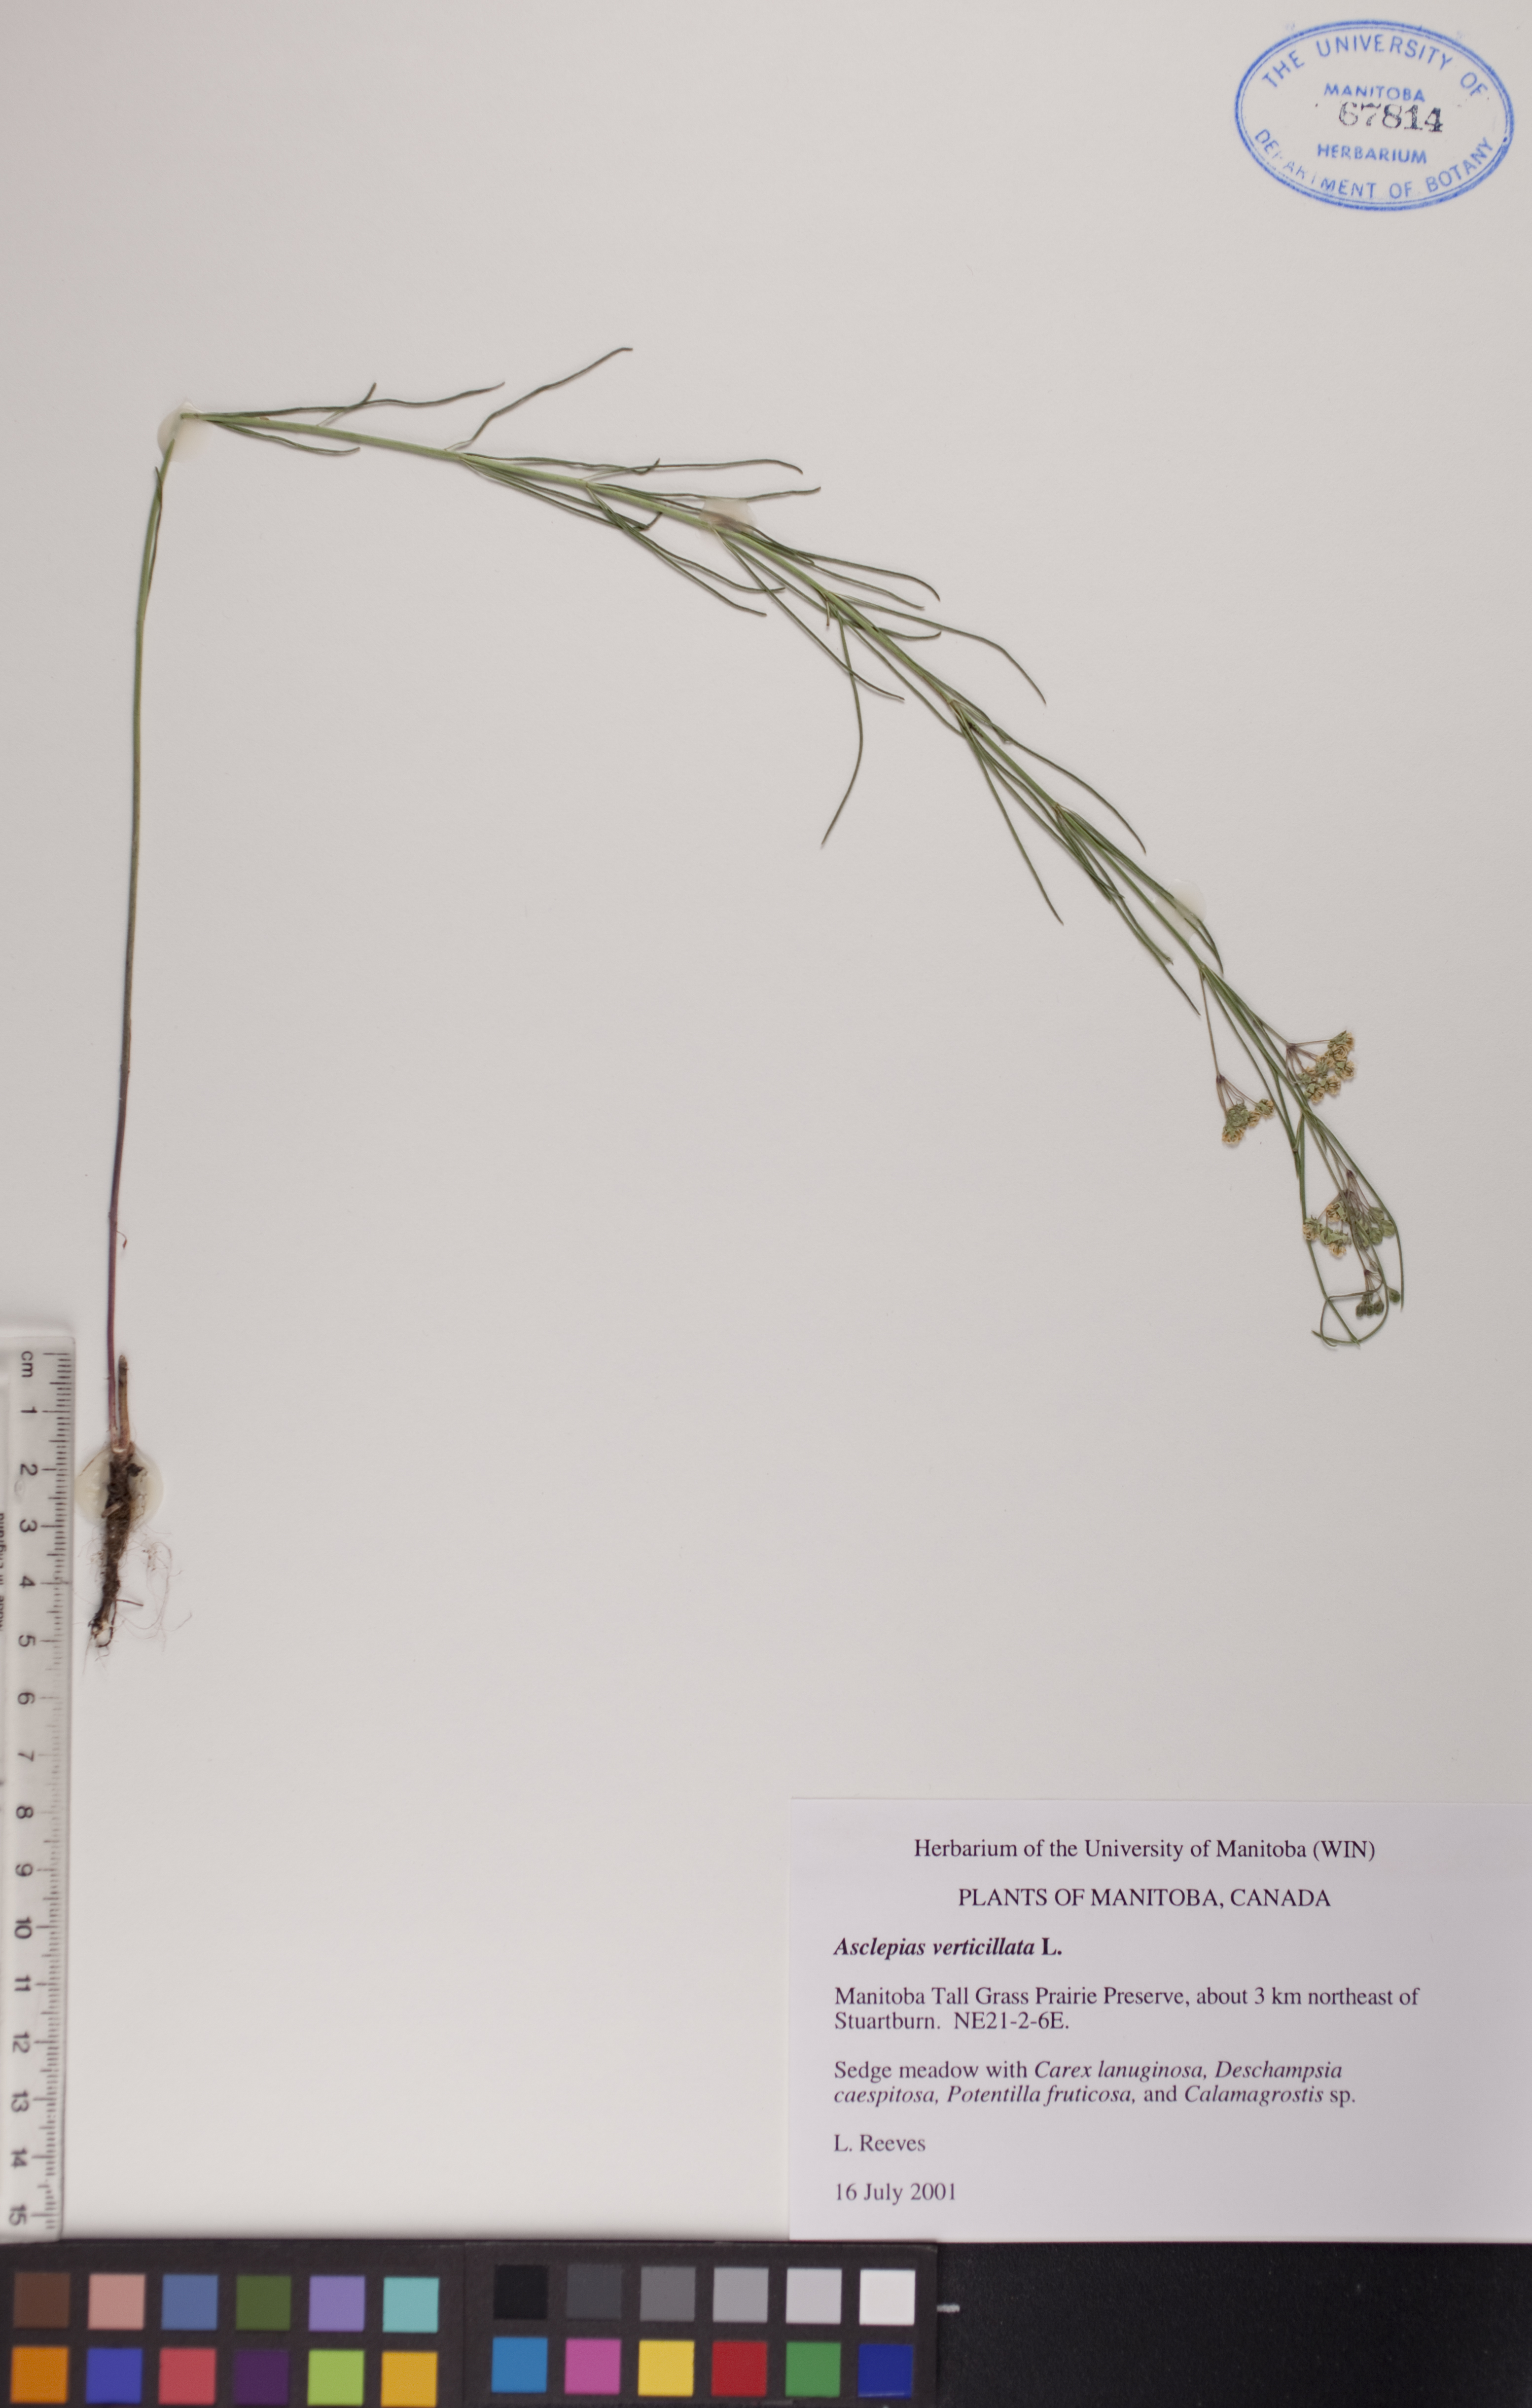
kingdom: Plantae
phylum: Tracheophyta
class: Magnoliopsida
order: Gentianales
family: Apocynaceae
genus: Asclepias
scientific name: Asclepias verticillata
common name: Eastern whorled milkweed
